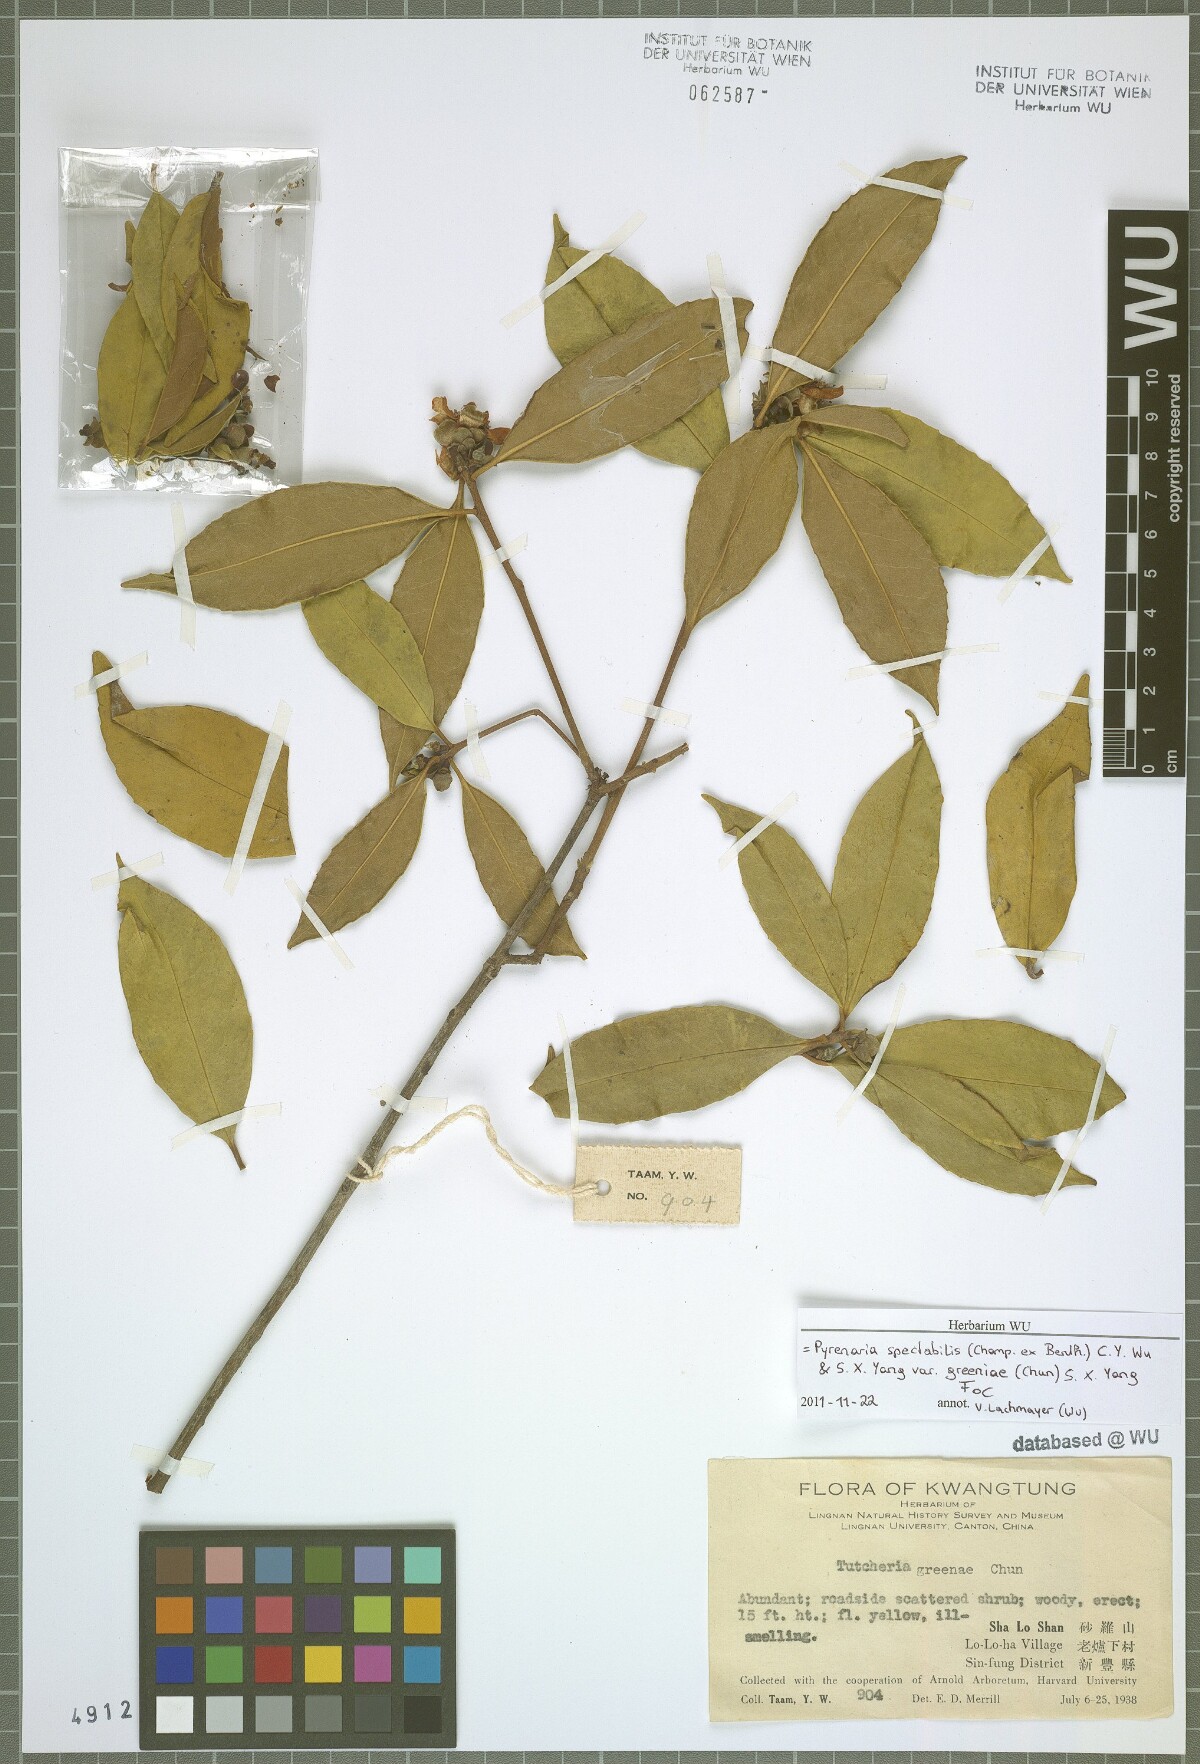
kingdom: Plantae
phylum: Tracheophyta
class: Magnoliopsida
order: Ericales
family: Theaceae
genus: Pyrenaria
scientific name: Pyrenaria spectabilis
